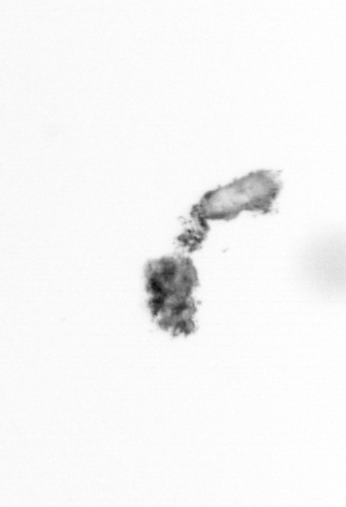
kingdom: Animalia
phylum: Arthropoda
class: Copepoda
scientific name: Copepoda
